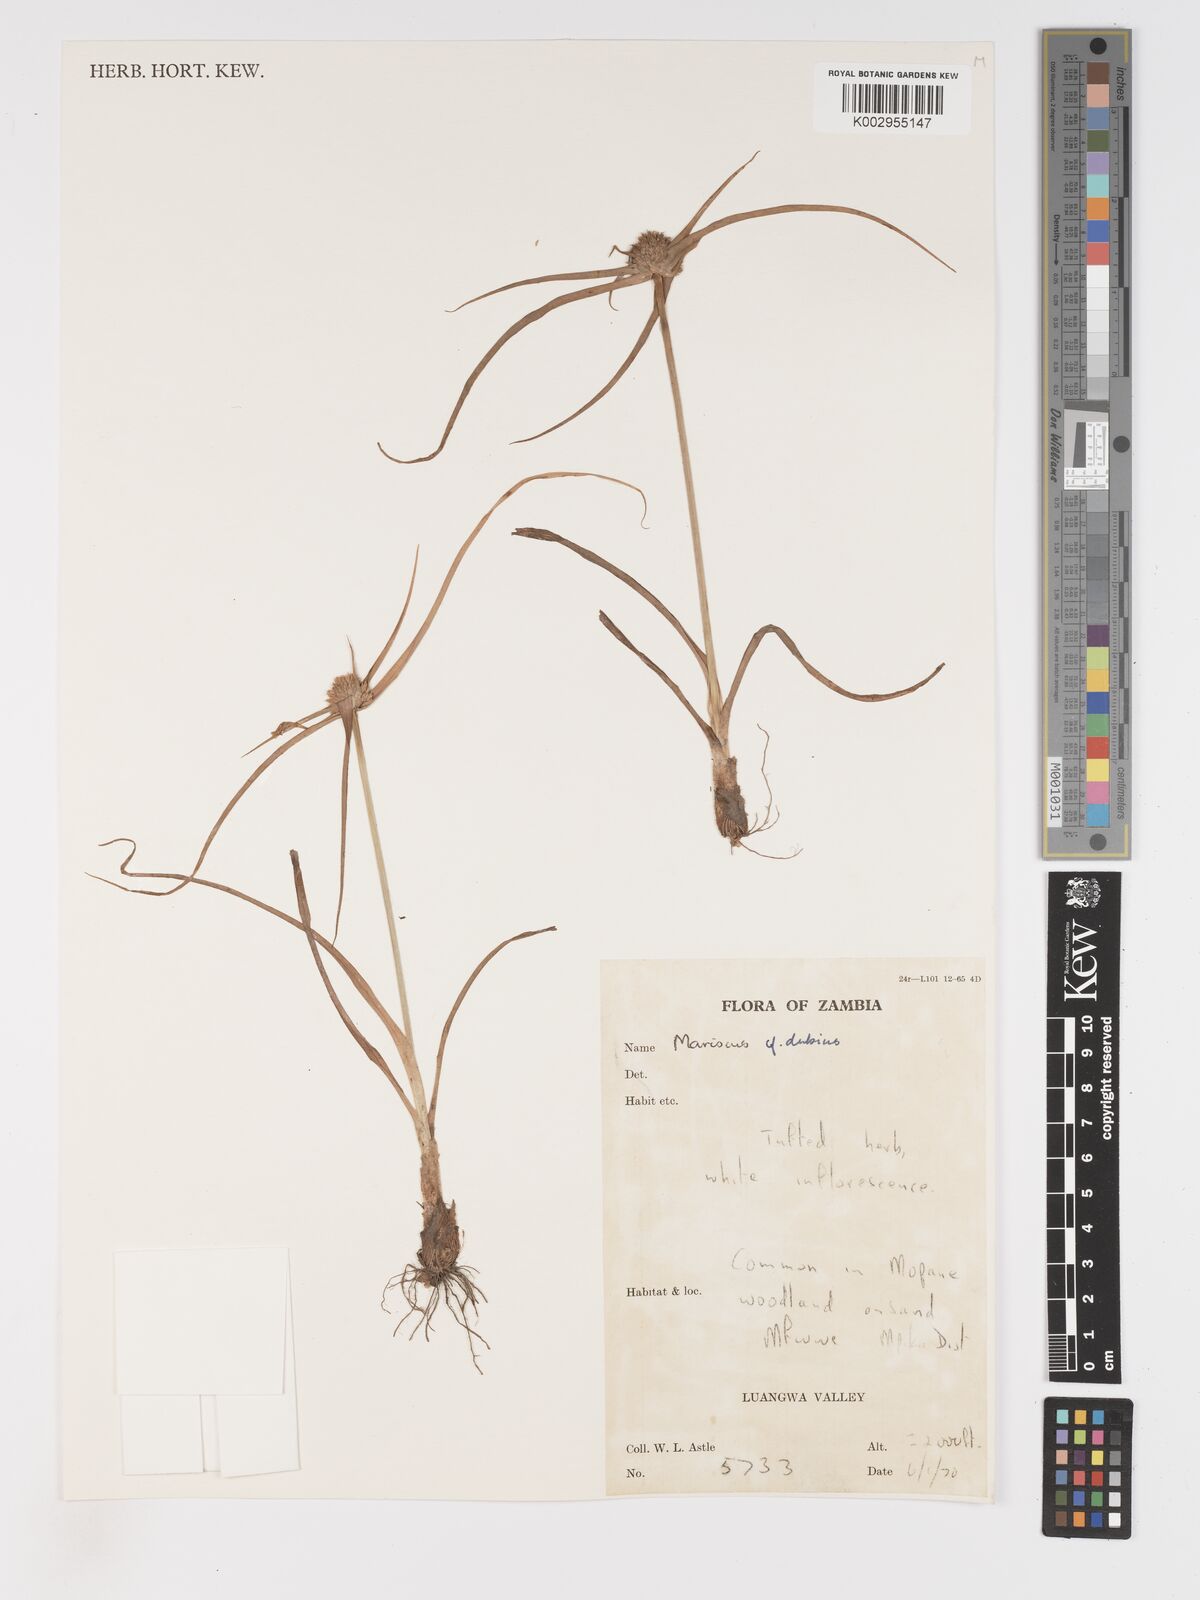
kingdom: Plantae
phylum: Tracheophyta
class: Liliopsida
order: Poales
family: Cyperaceae
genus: Cyperus
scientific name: Cyperus dubius
